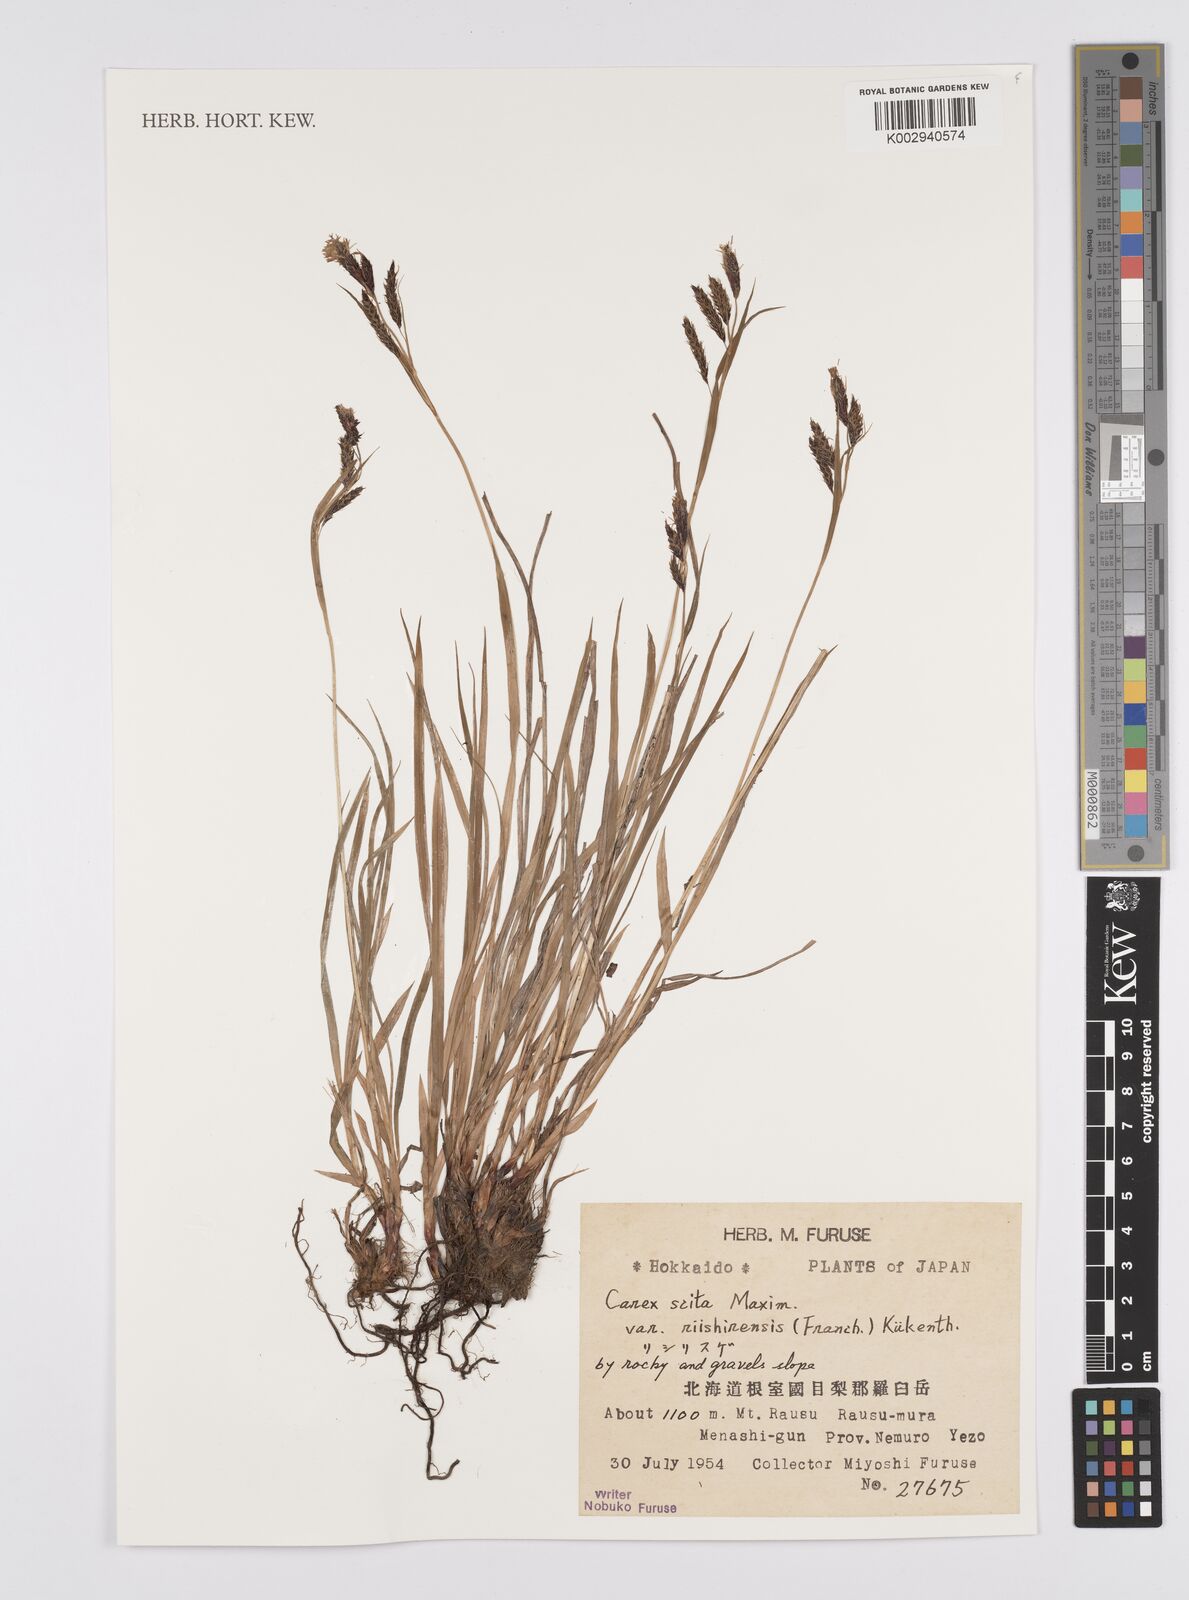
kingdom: Plantae
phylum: Tracheophyta
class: Liliopsida
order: Poales
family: Cyperaceae
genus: Carex
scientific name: Carex scita
